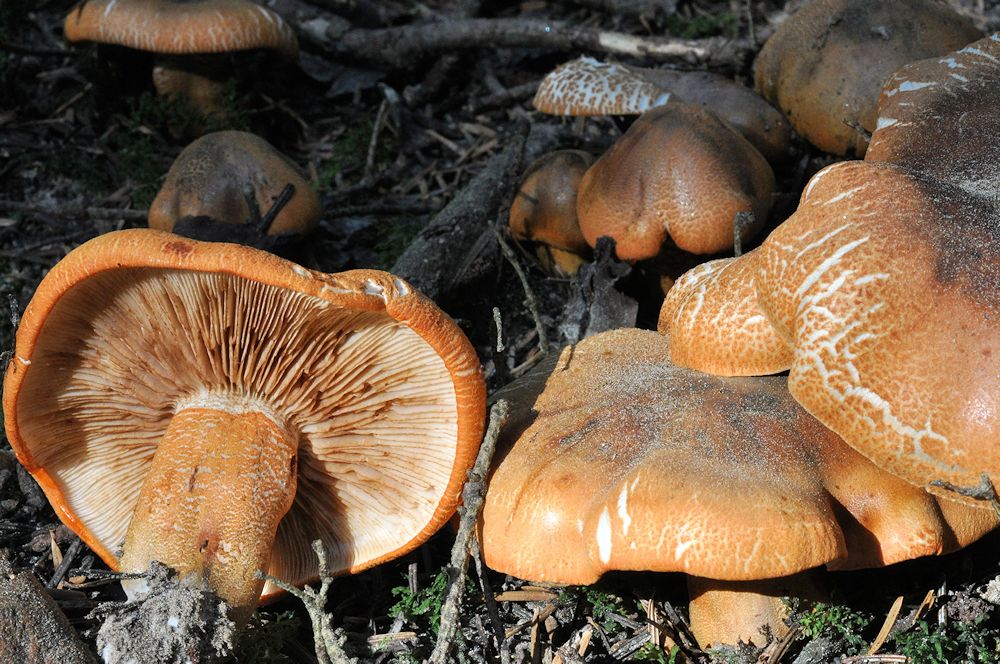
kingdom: Fungi
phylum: Basidiomycota
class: Agaricomycetes
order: Agaricales
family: Tricholomataceae
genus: Tricholoma
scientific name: Tricholoma aurantium
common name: orangegul ridderhat
